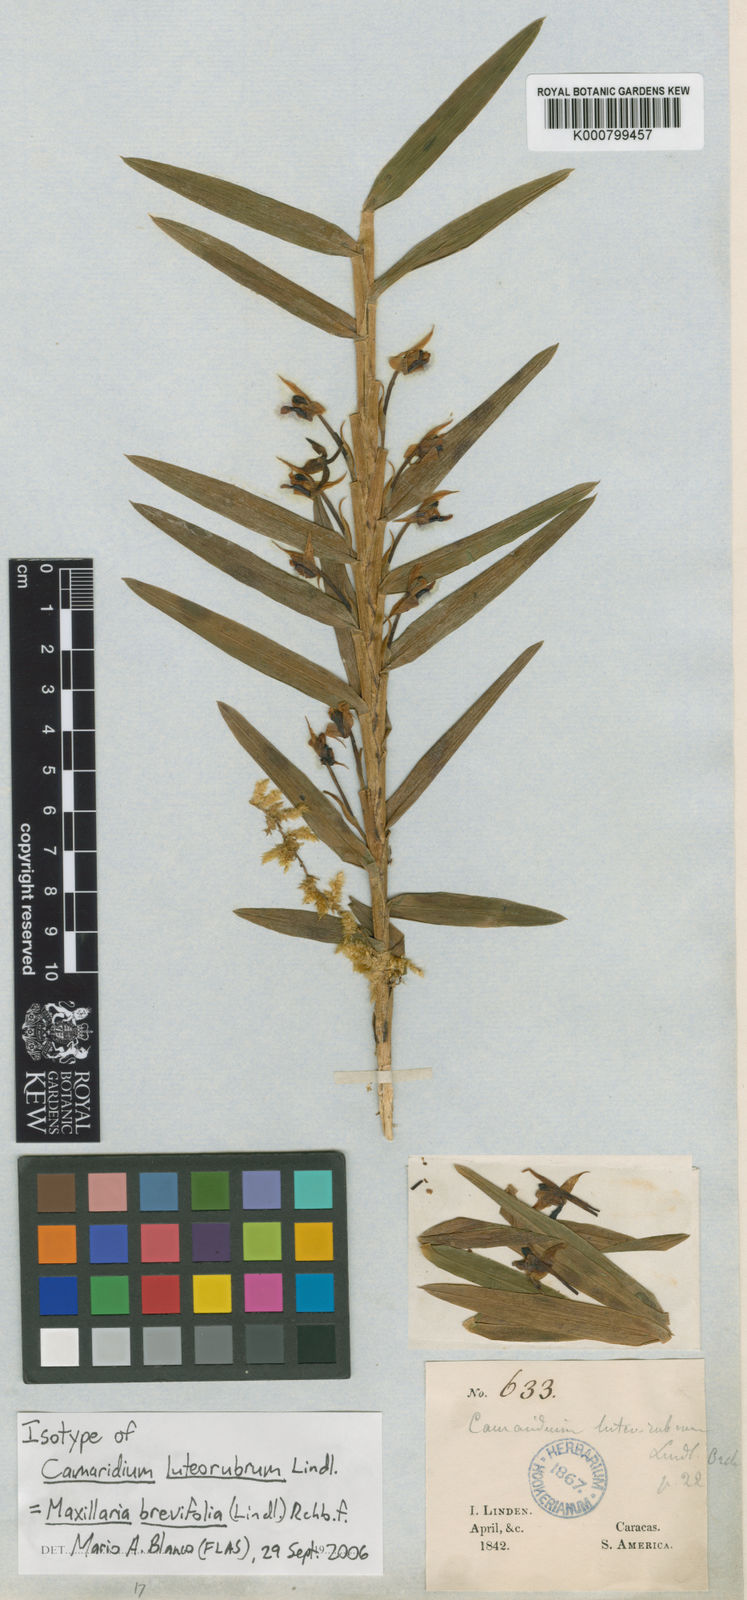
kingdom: Plantae
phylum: Tracheophyta
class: Liliopsida
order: Asparagales
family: Orchidaceae
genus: Maxillaria
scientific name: Maxillaria brevifolia
